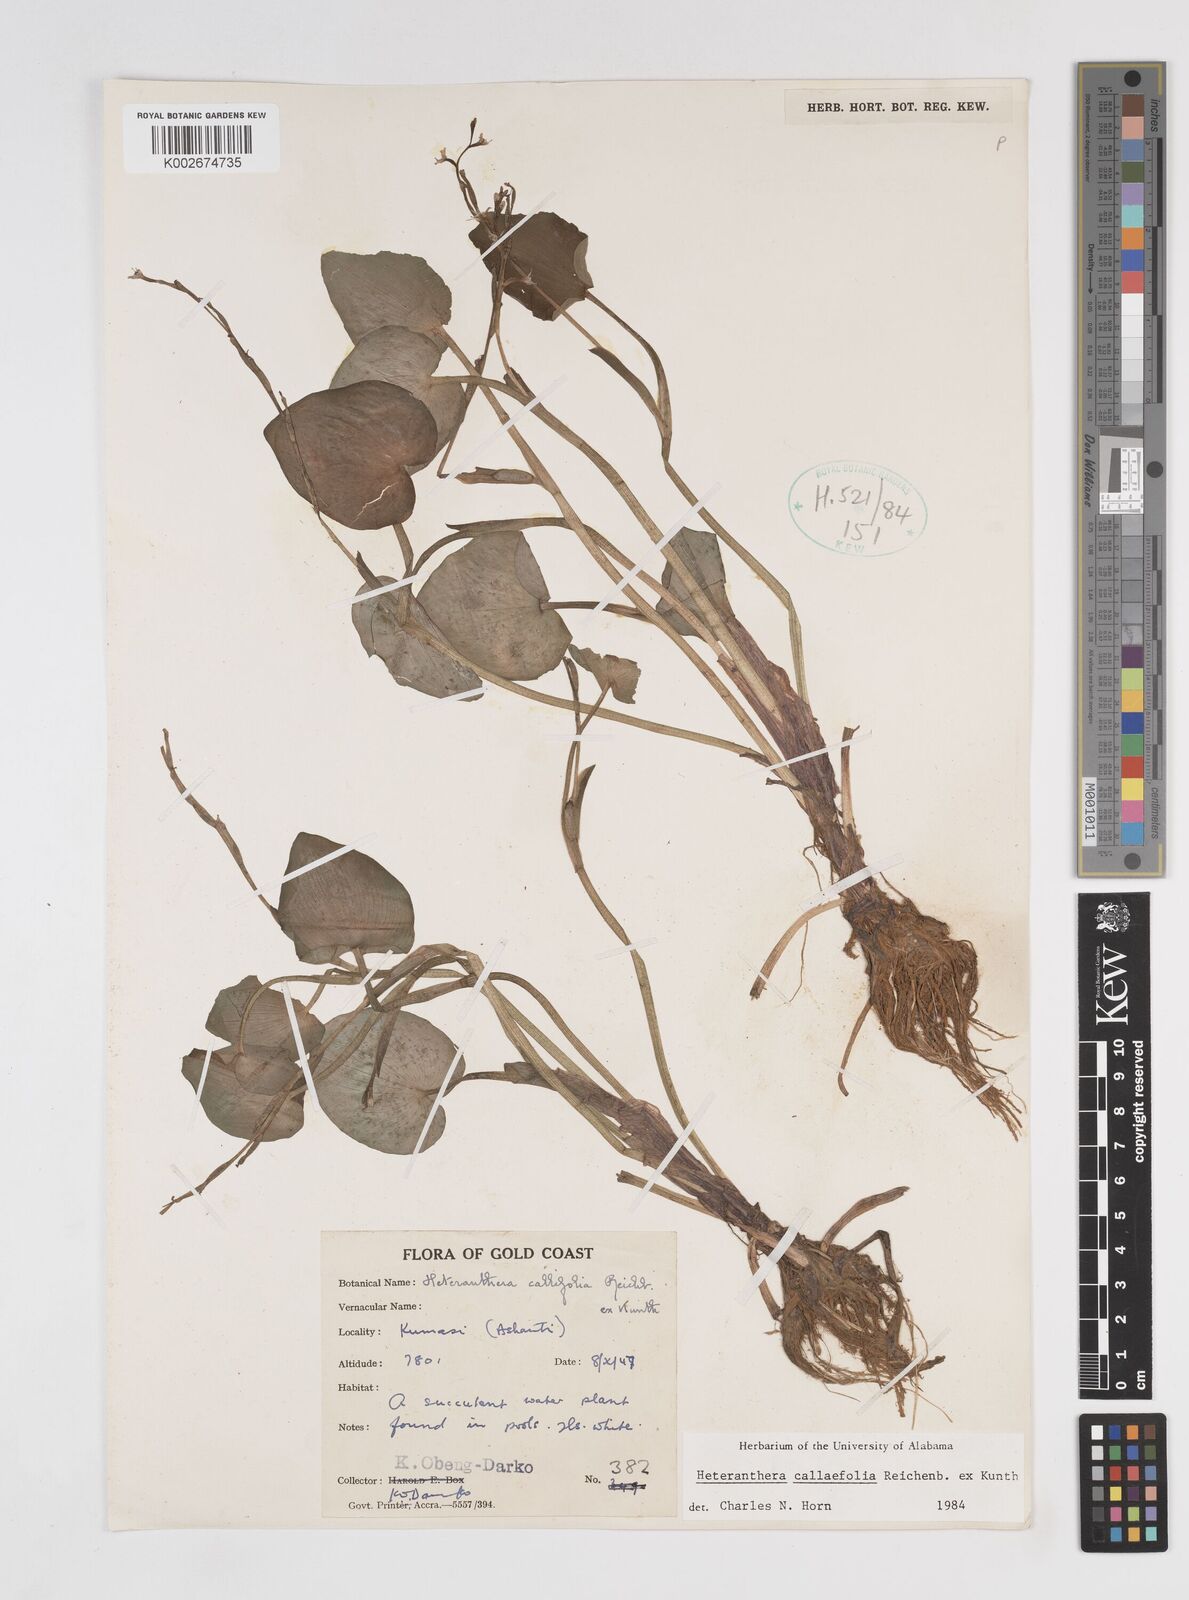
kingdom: Plantae
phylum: Tracheophyta
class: Liliopsida
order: Commelinales
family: Pontederiaceae
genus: Heteranthera
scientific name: Heteranthera callifolia
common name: Mud plantain
